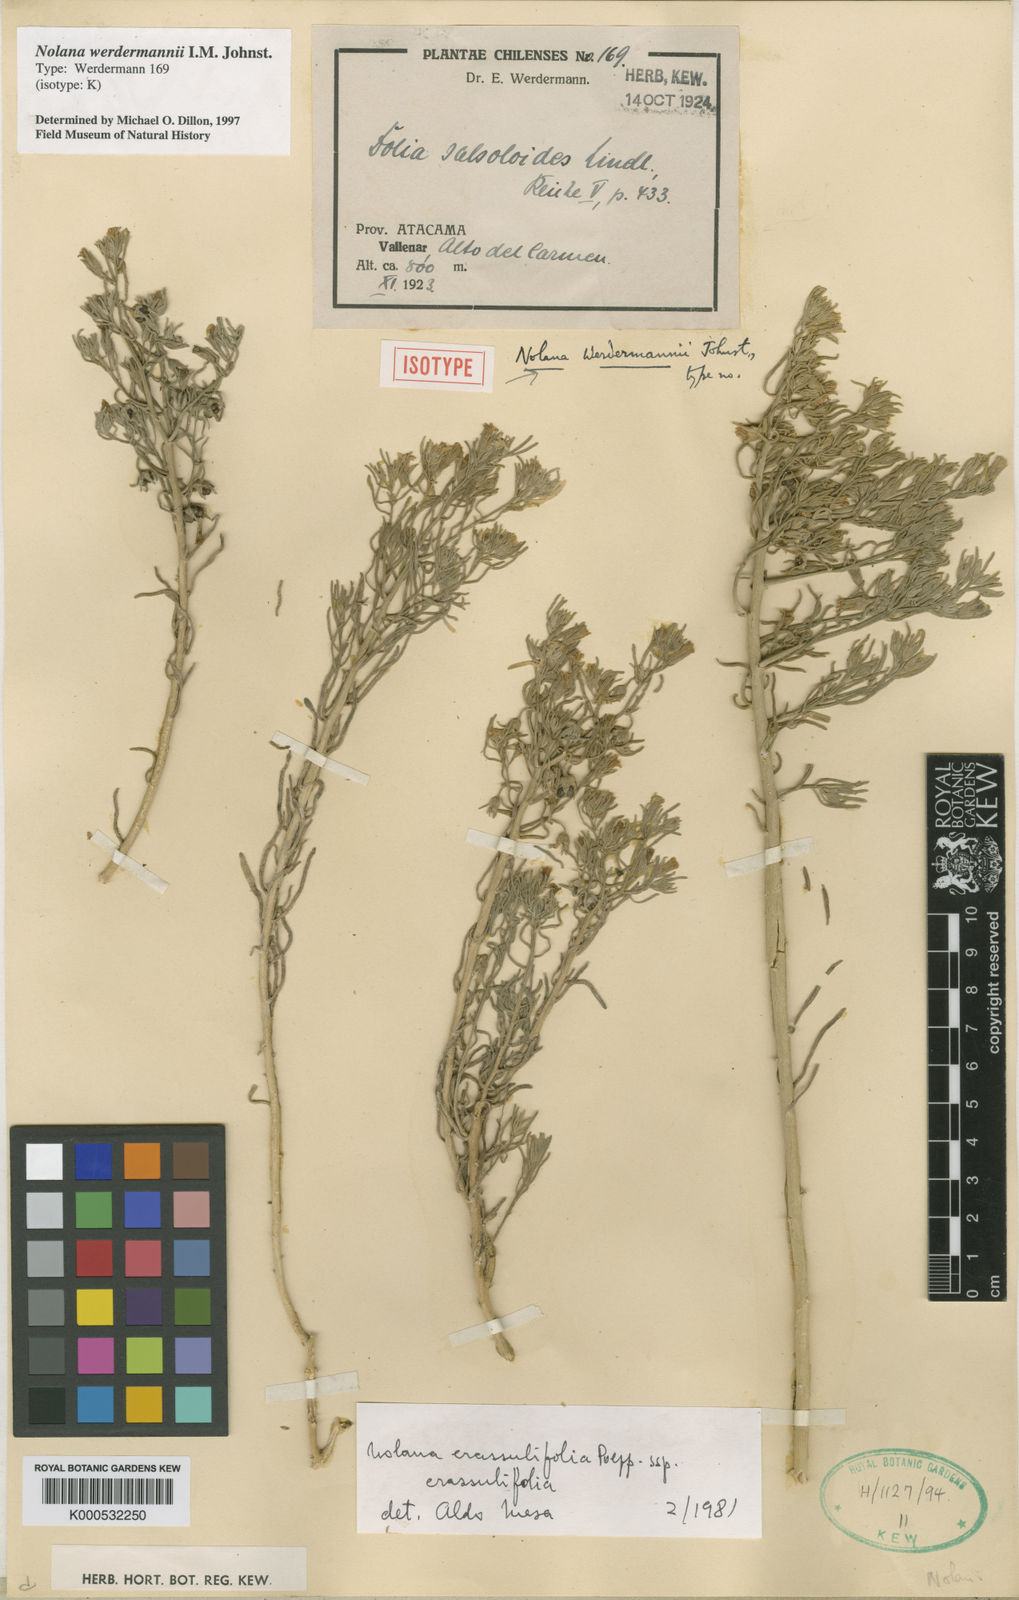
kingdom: Plantae
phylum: Tracheophyta
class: Magnoliopsida
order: Solanales
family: Solanaceae
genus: Nolana
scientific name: Nolana
